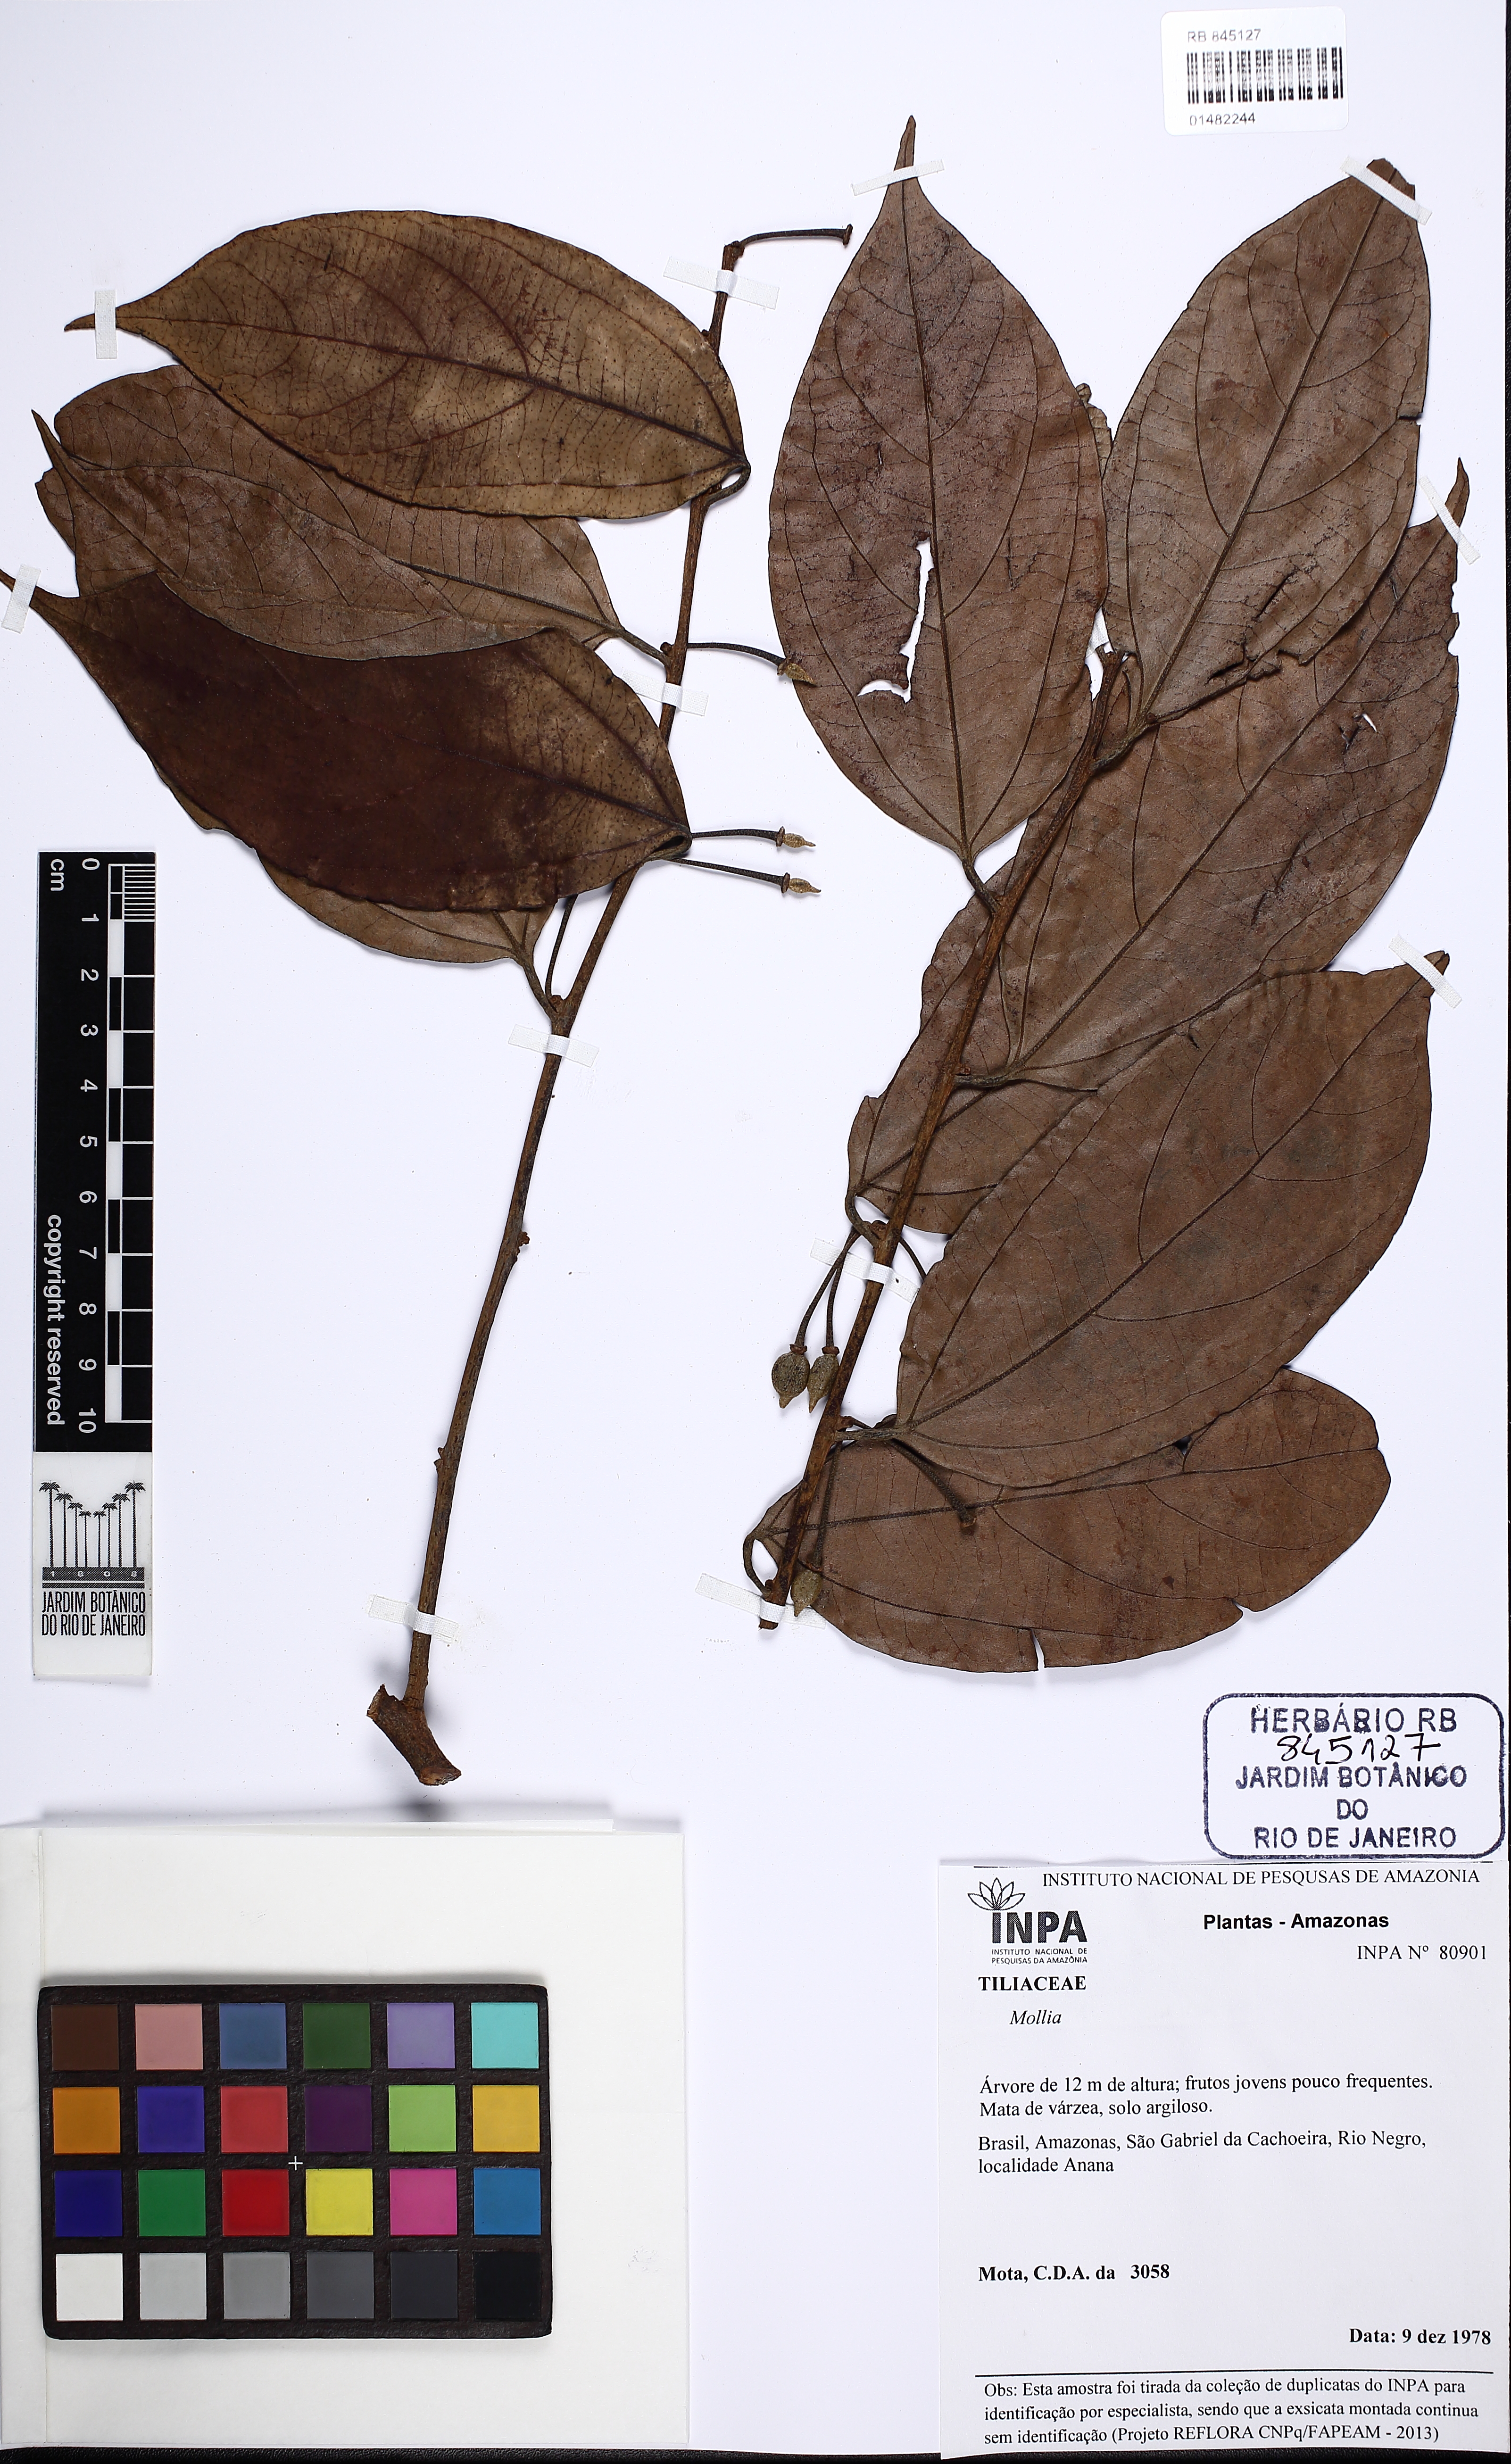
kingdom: Plantae
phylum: Tracheophyta
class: Magnoliopsida
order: Malvales
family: Malvaceae
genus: Mollia
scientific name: Mollia
